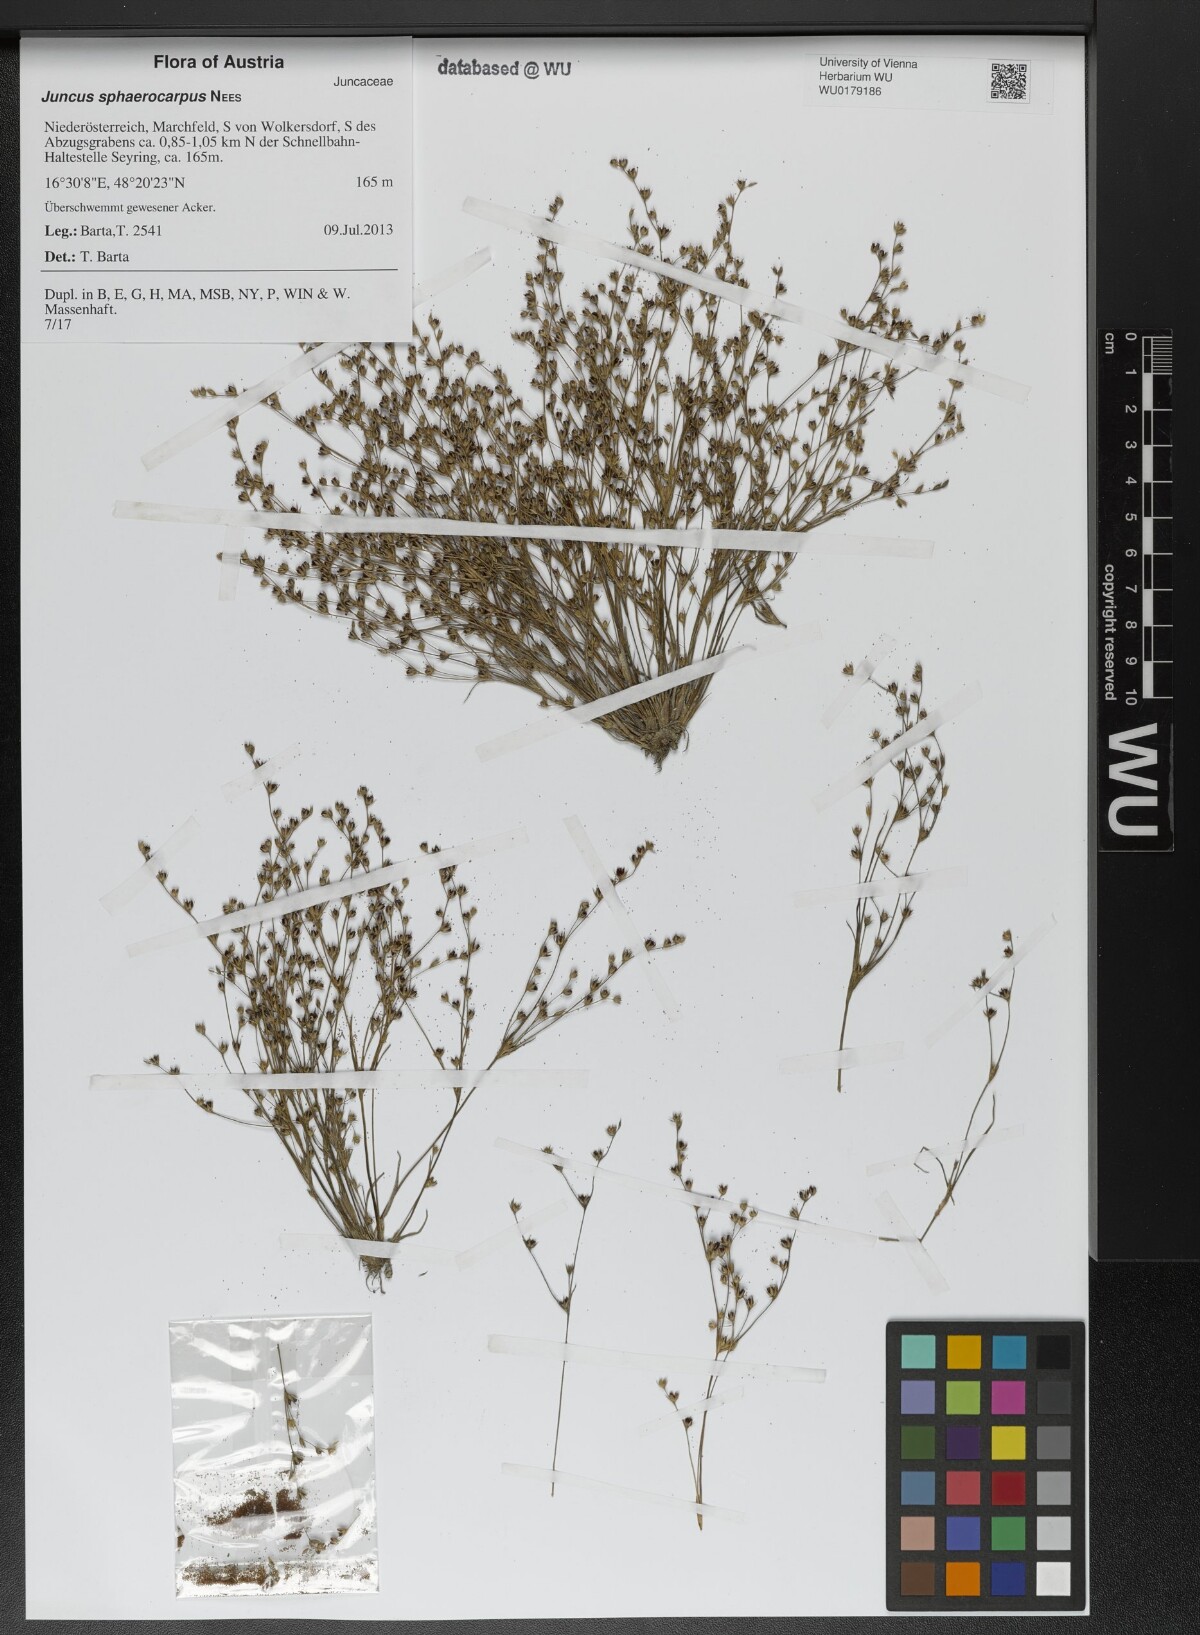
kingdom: Plantae
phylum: Tracheophyta
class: Liliopsida
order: Poales
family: Juncaceae
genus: Juncus
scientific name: Juncus sphaerocarpus
